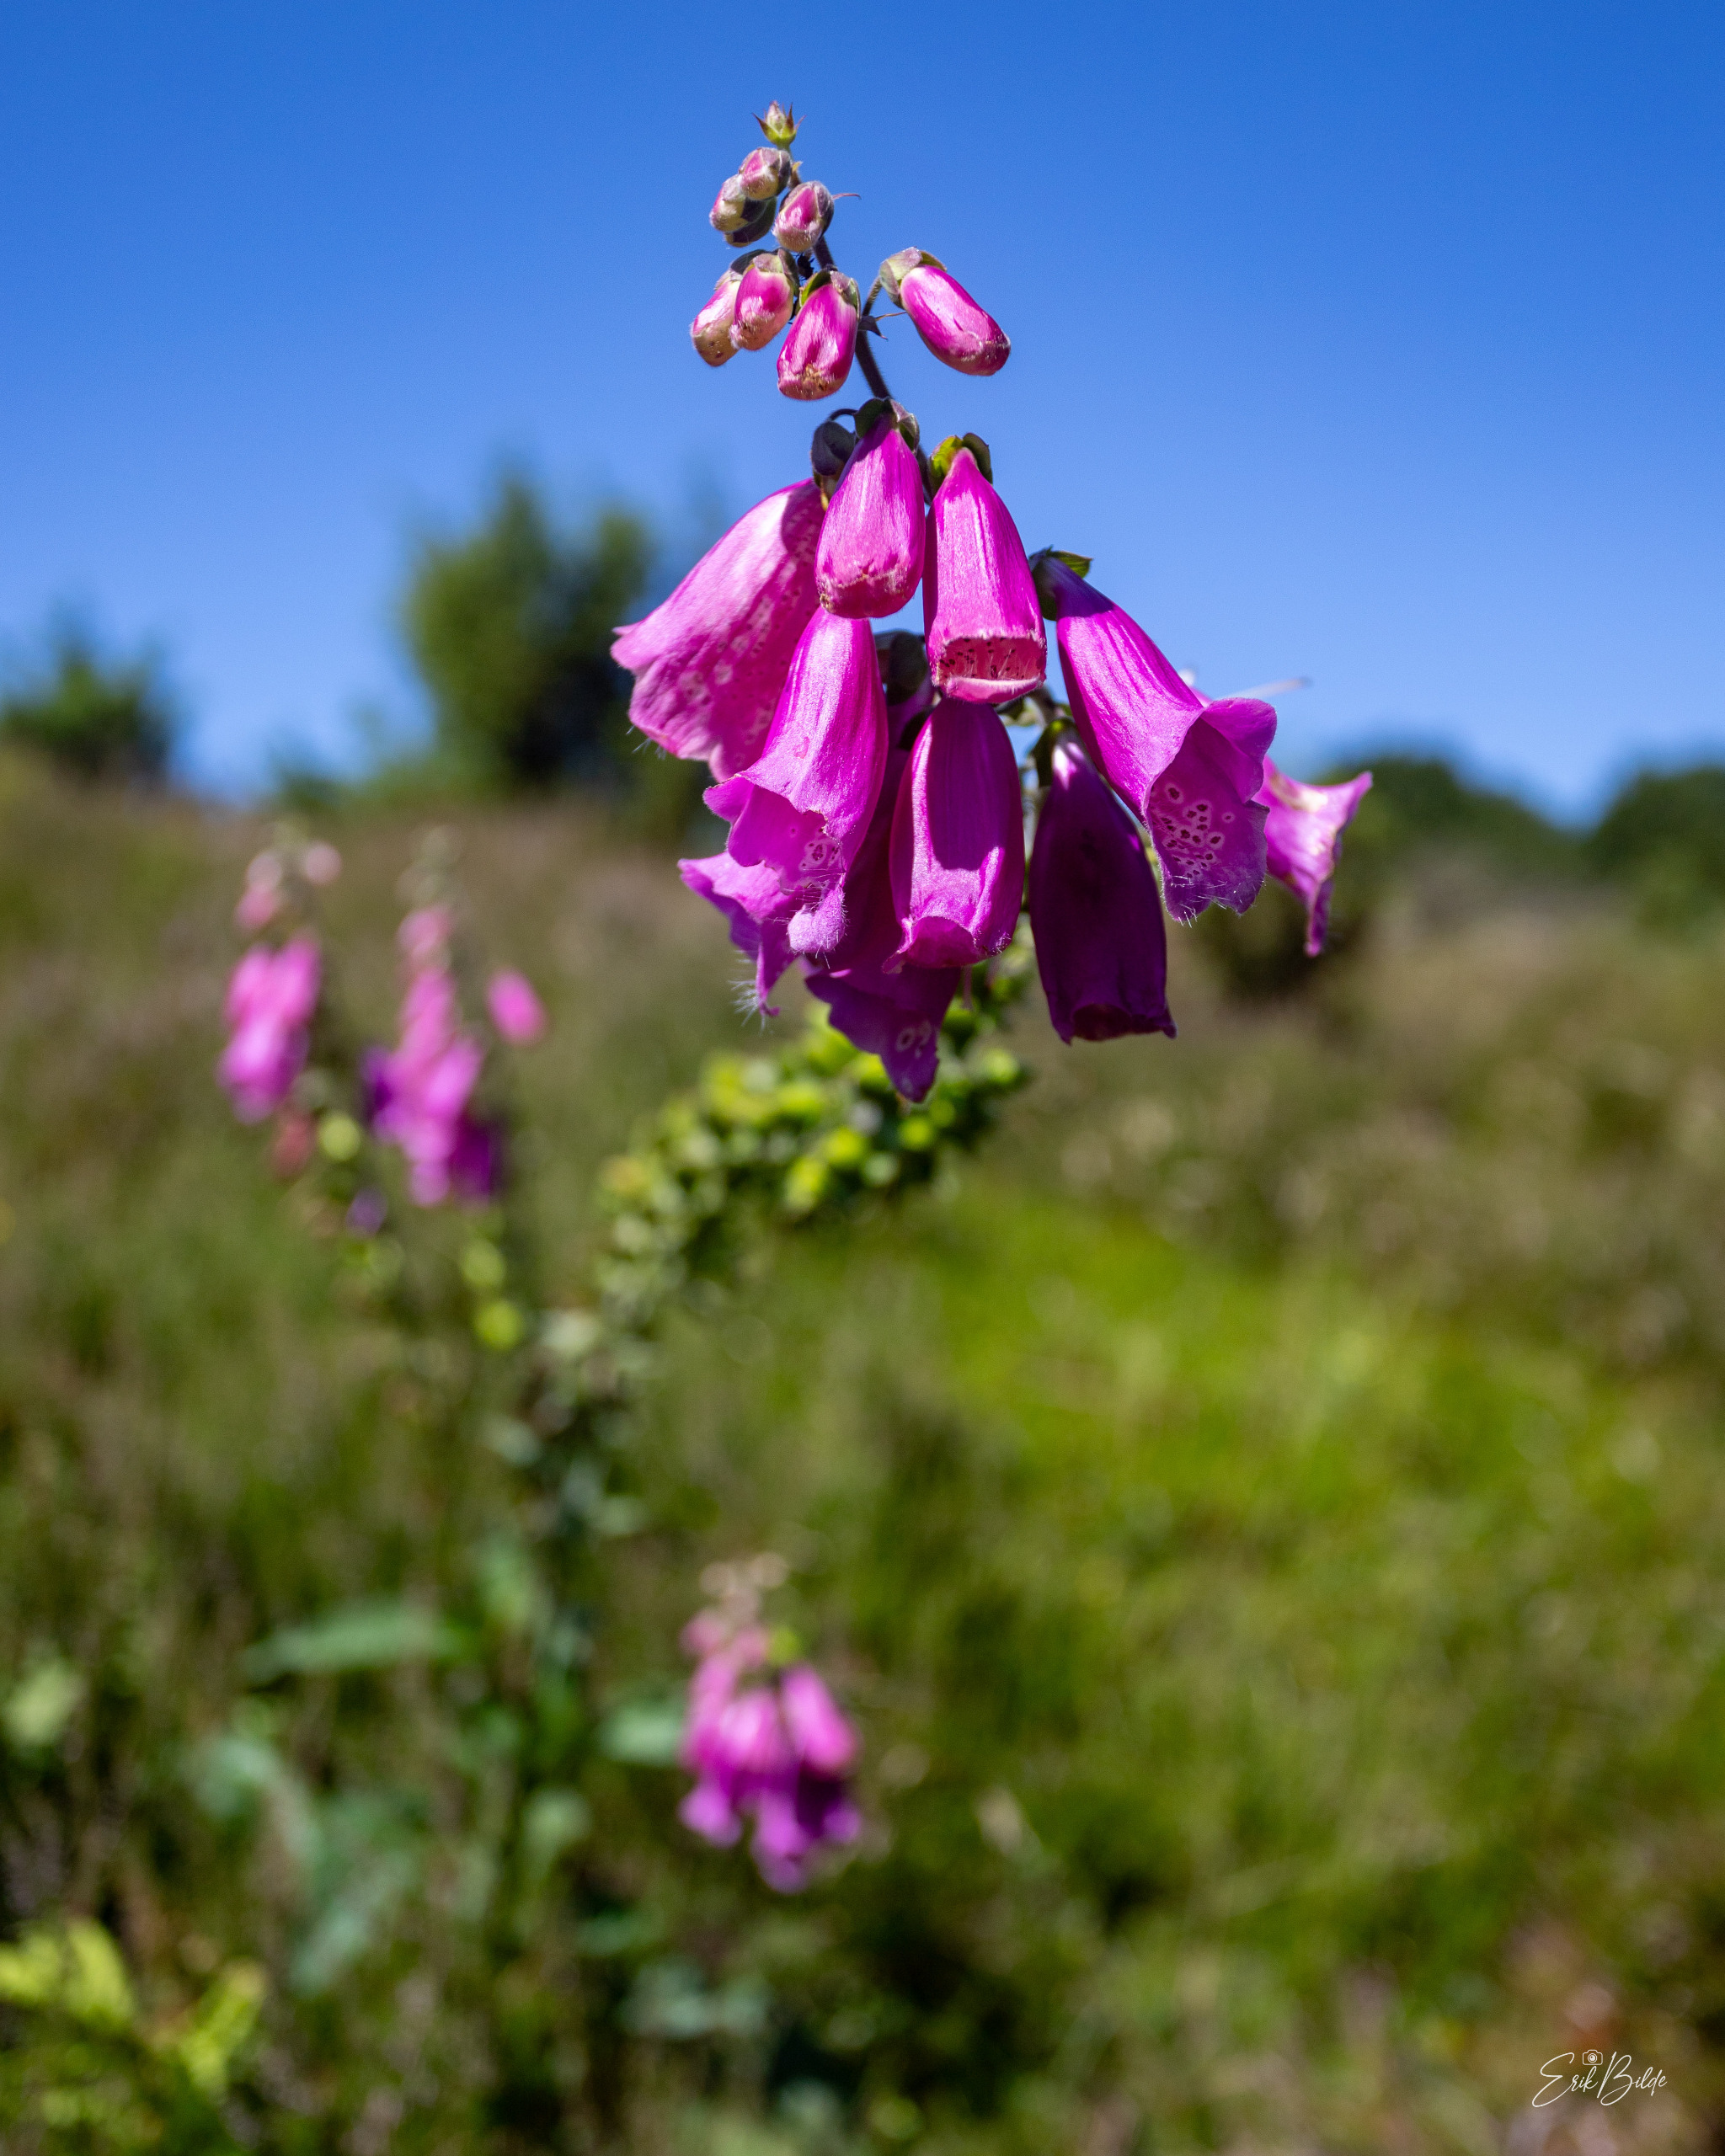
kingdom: Plantae
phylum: Tracheophyta
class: Magnoliopsida
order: Lamiales
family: Plantaginaceae
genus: Digitalis
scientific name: Digitalis purpurea
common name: Almindelig fingerbøl
